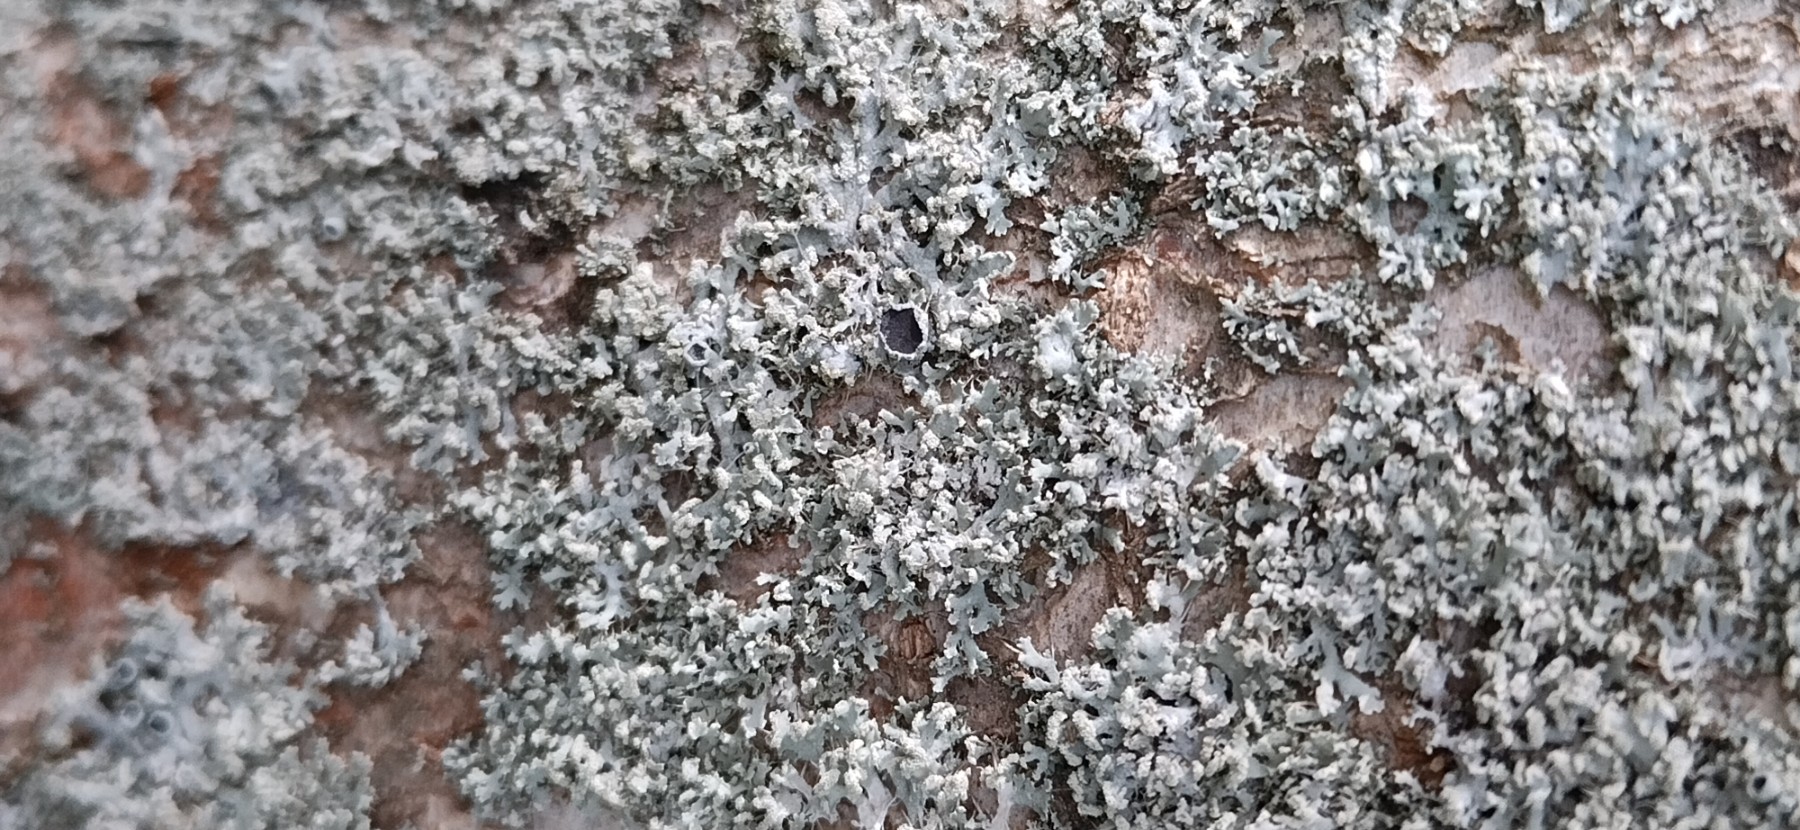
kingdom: Fungi
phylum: Ascomycota
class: Lecanoromycetes
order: Caliciales
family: Physciaceae
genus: Physcia
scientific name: Physcia tenella
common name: spæd rosetlav
